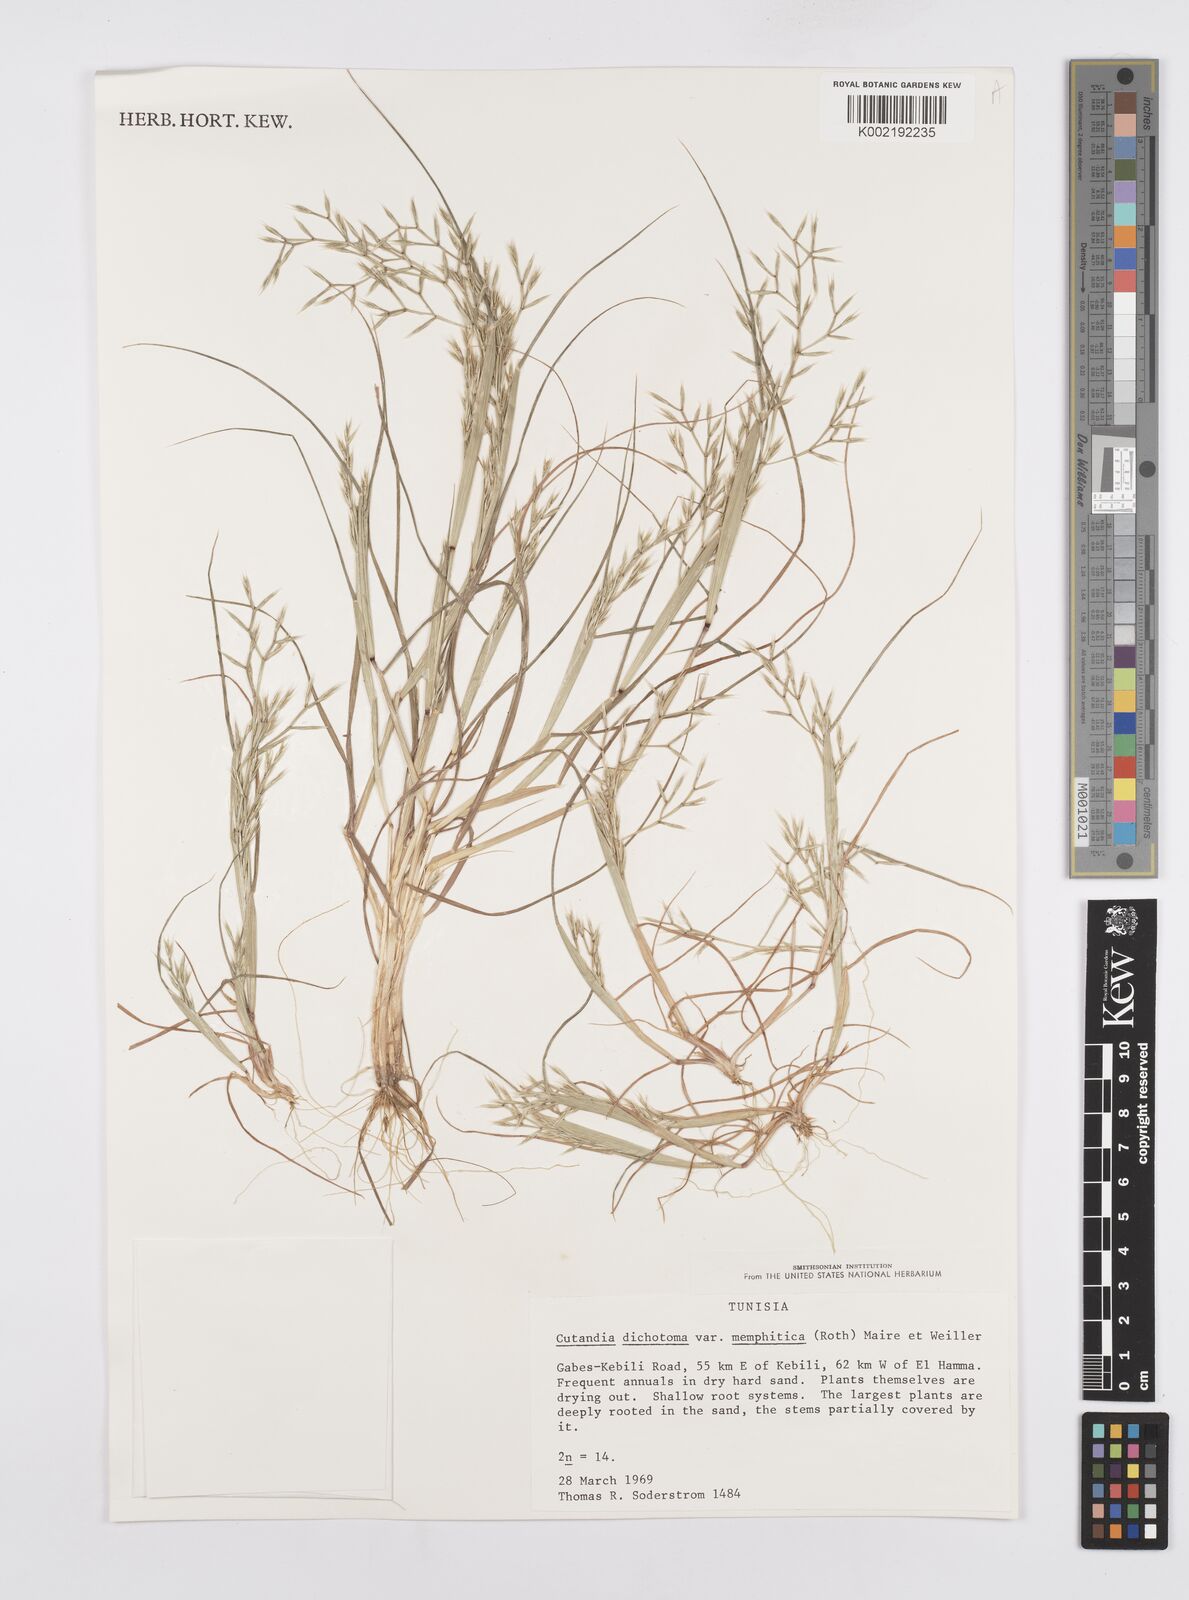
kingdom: Plantae
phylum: Tracheophyta
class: Liliopsida
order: Poales
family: Poaceae
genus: Cutandia
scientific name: Cutandia memphitica
